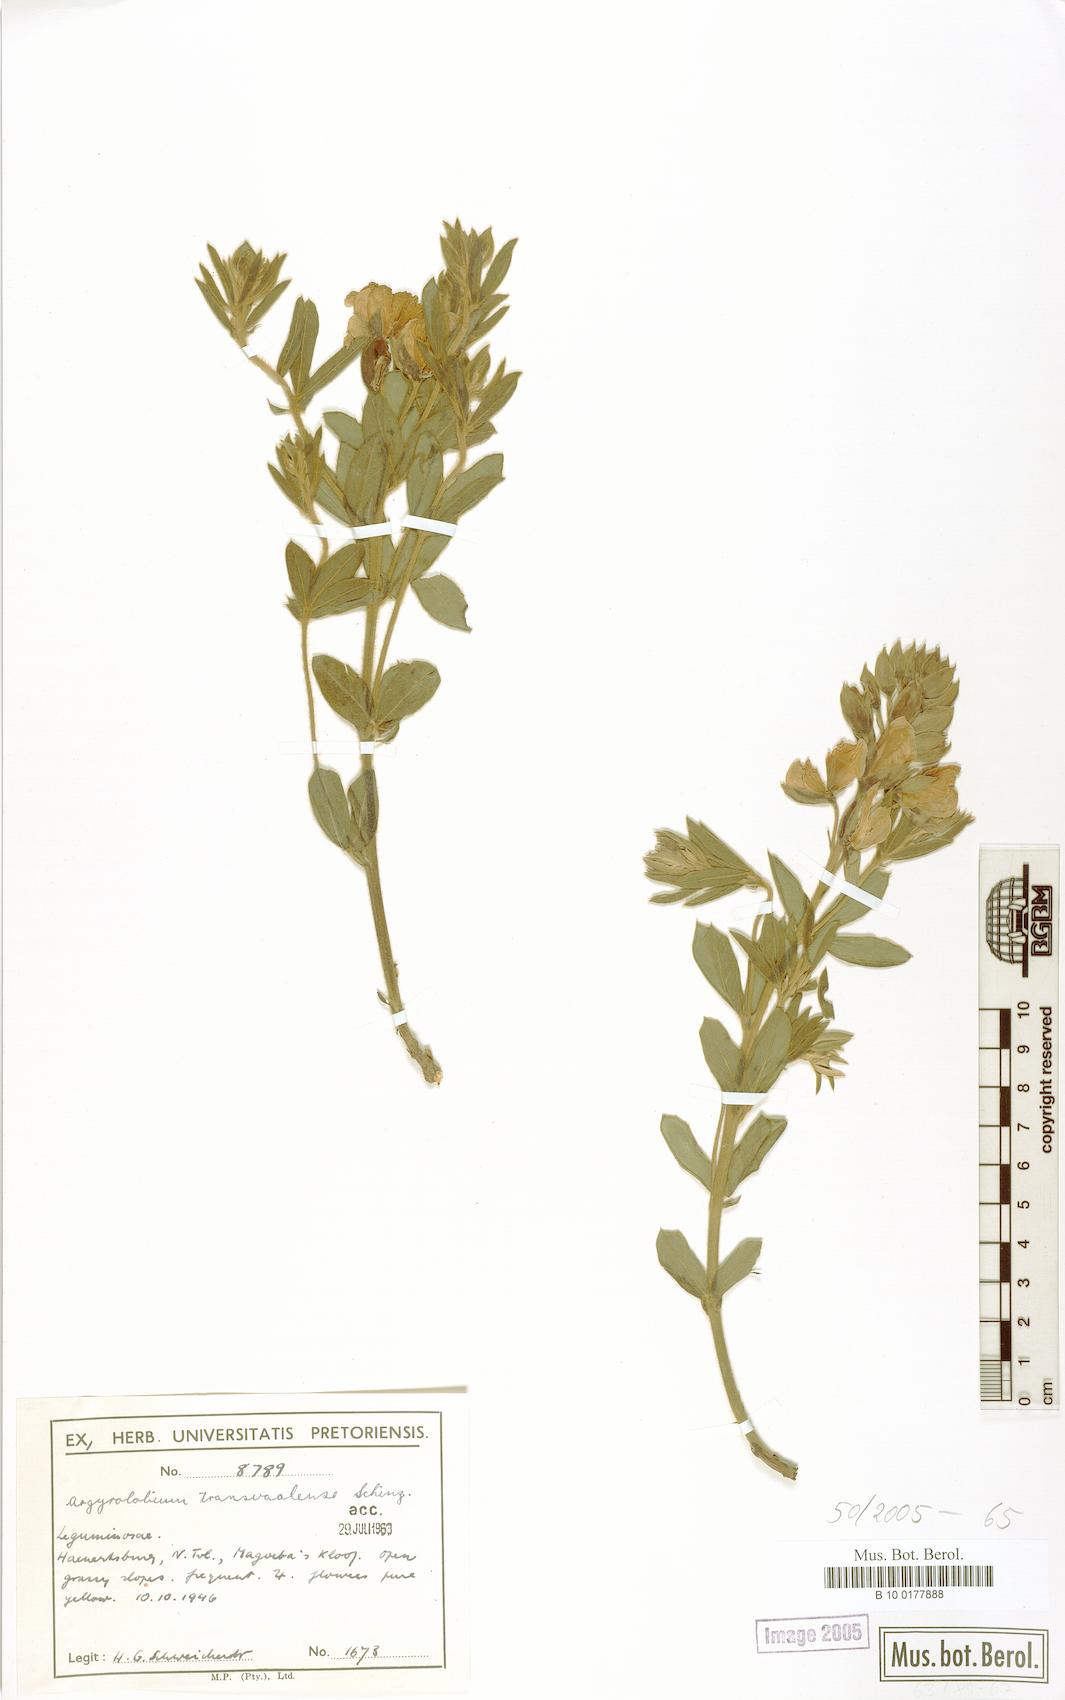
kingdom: Plantae
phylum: Tracheophyta
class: Magnoliopsida
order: Fabales
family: Fabaceae
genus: Argyrolobium
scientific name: Argyrolobium transvaalense
